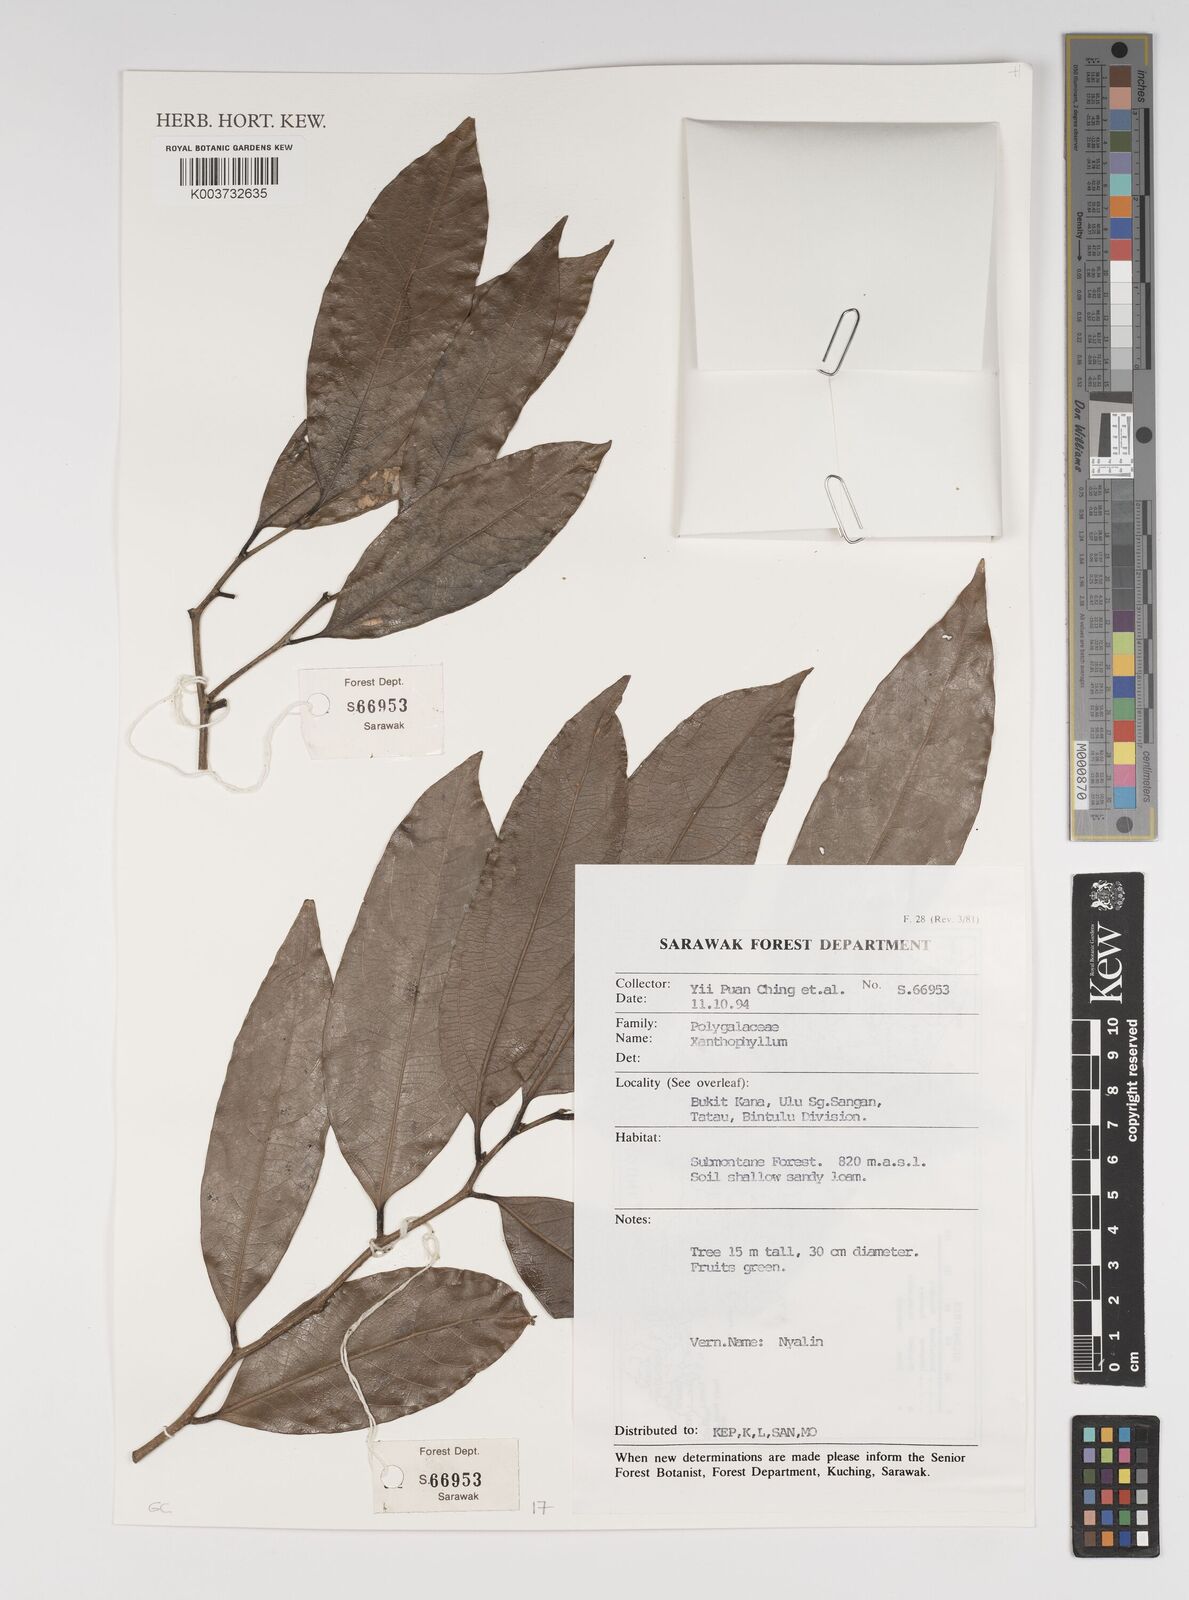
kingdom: Plantae
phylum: Tracheophyta
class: Magnoliopsida
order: Fabales
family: Polygalaceae
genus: Xanthophyllum
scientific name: Xanthophyllum
